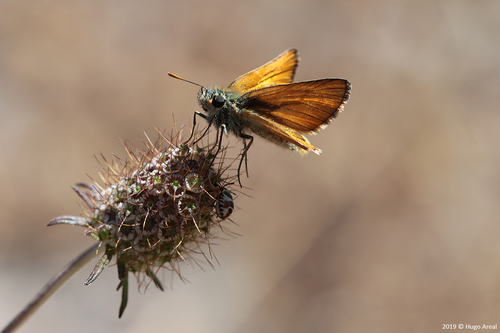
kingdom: Animalia
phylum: Arthropoda
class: Insecta
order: Lepidoptera
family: Hesperiidae
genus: Thymelicus
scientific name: Thymelicus sylvestris
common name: Small skipper
